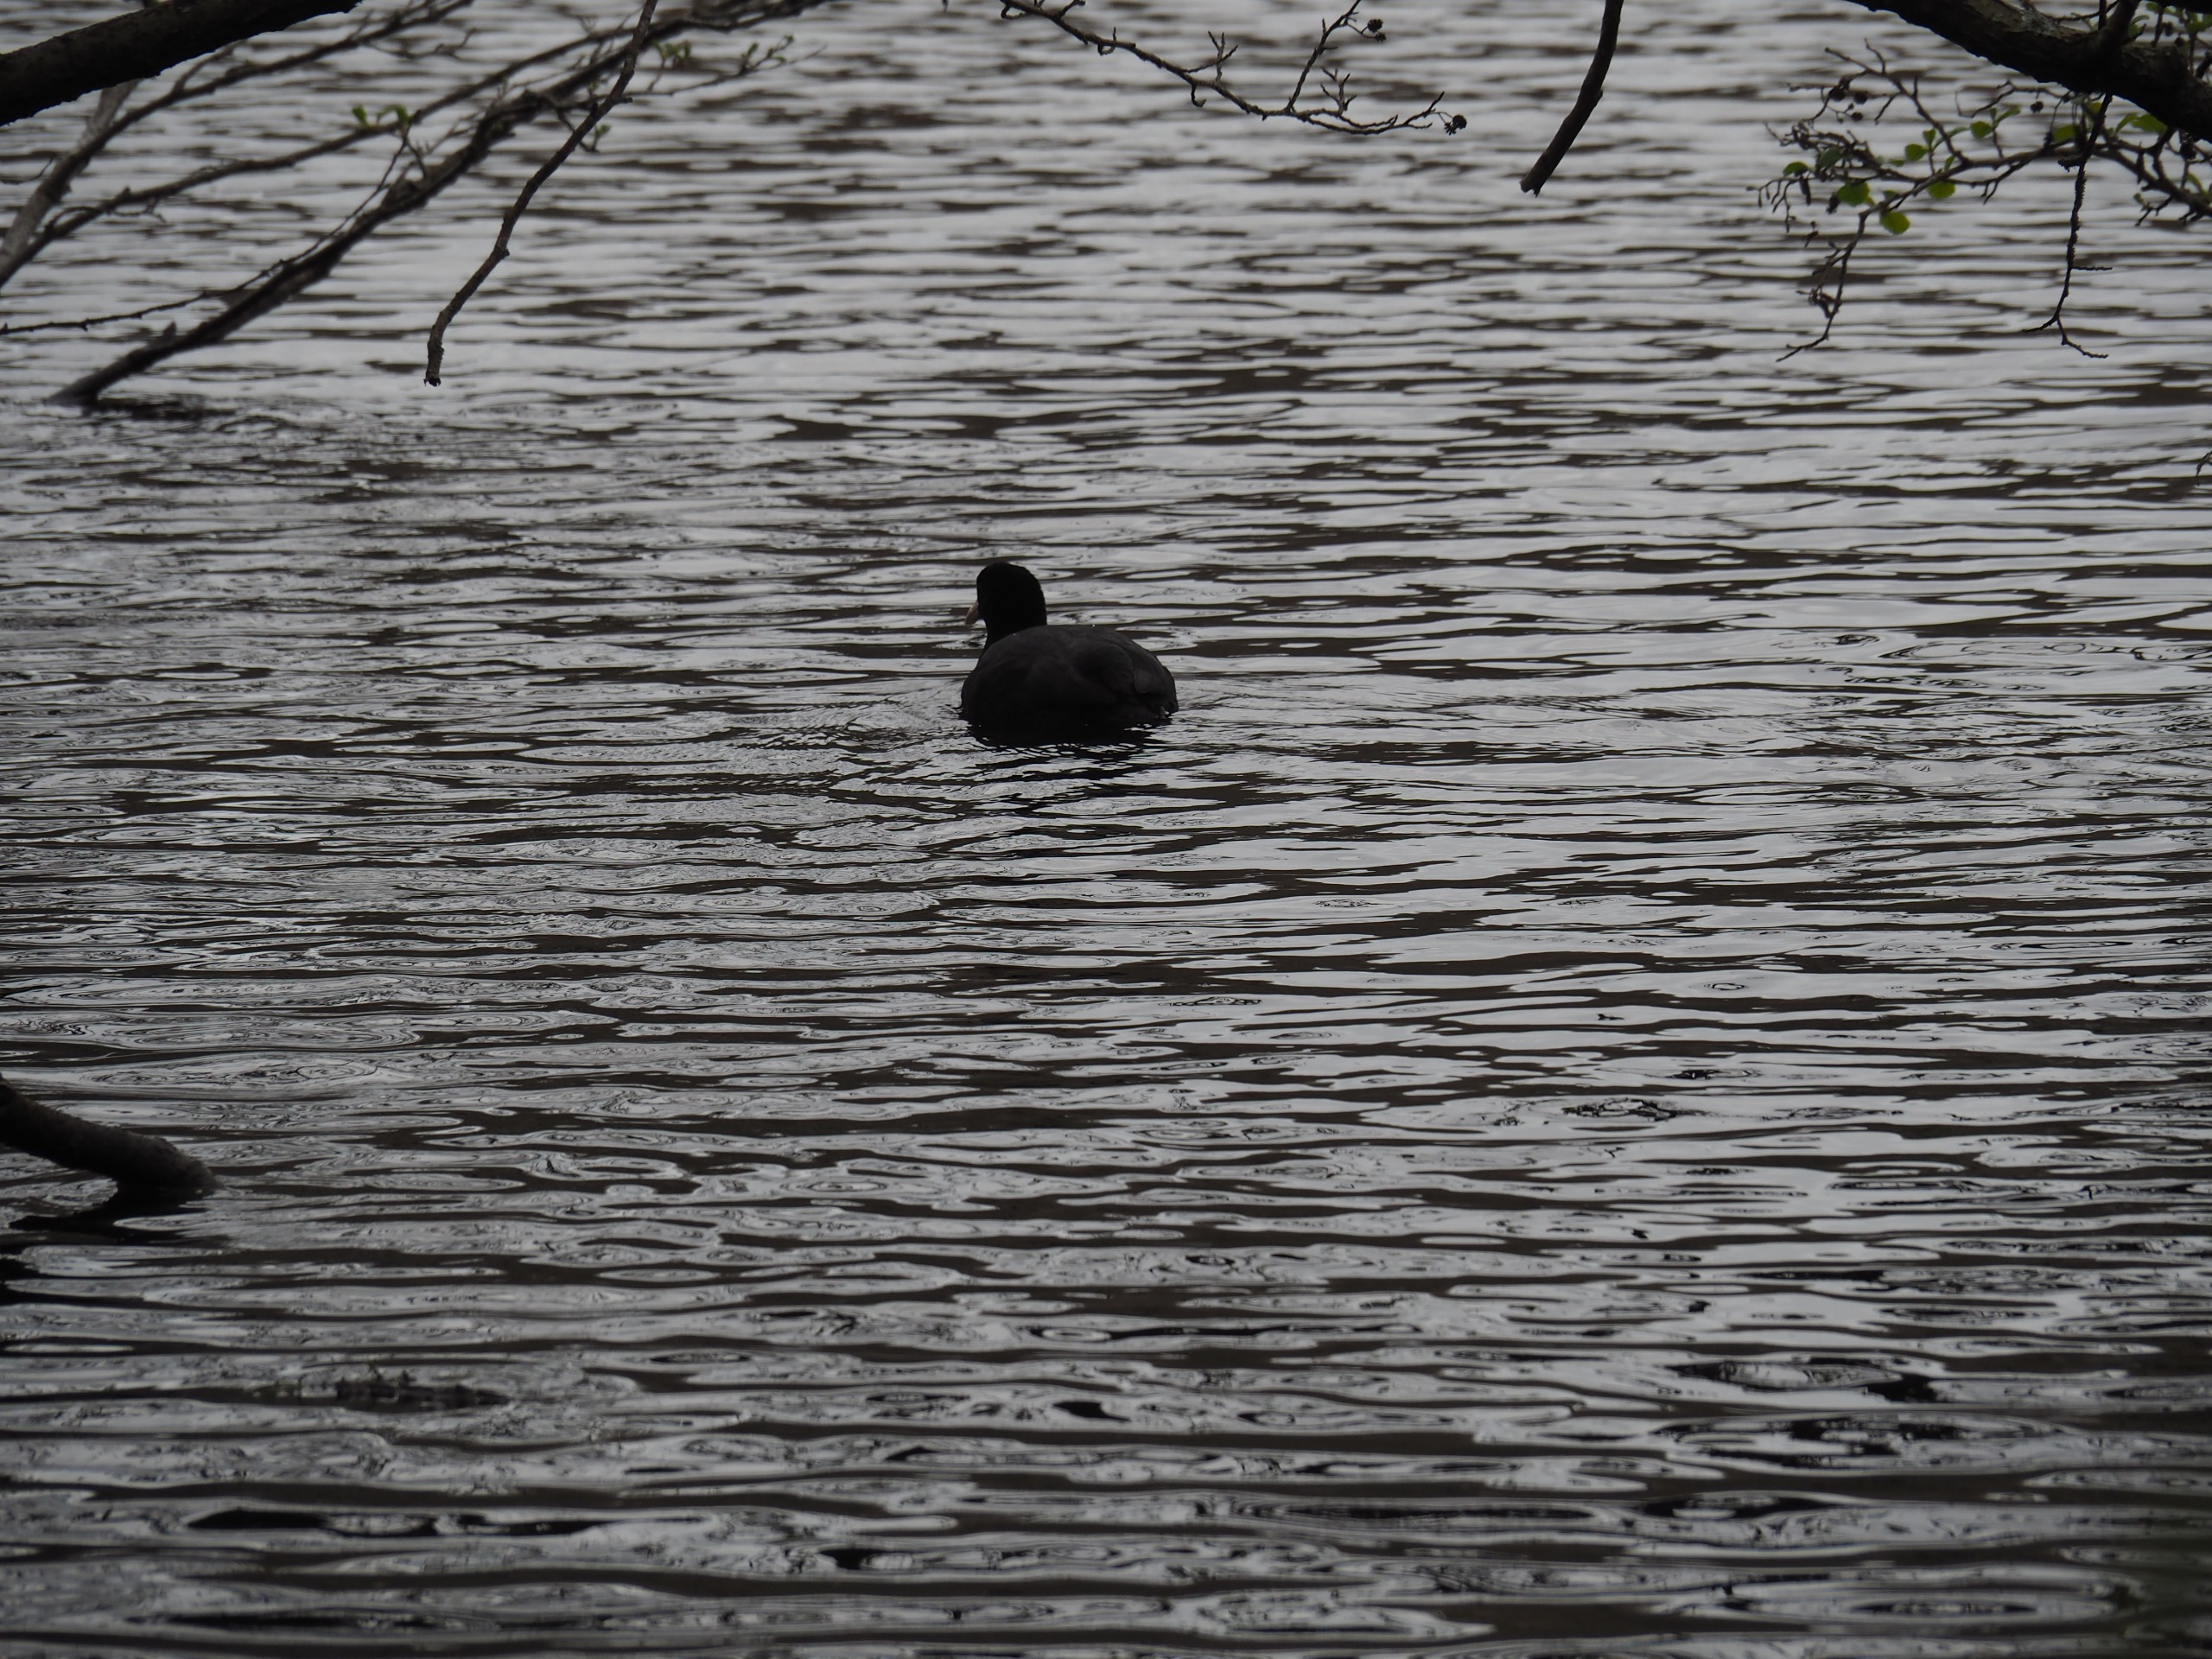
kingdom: Animalia
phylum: Chordata
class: Aves
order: Gruiformes
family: Rallidae
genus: Fulica
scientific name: Fulica atra
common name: Blishøne
